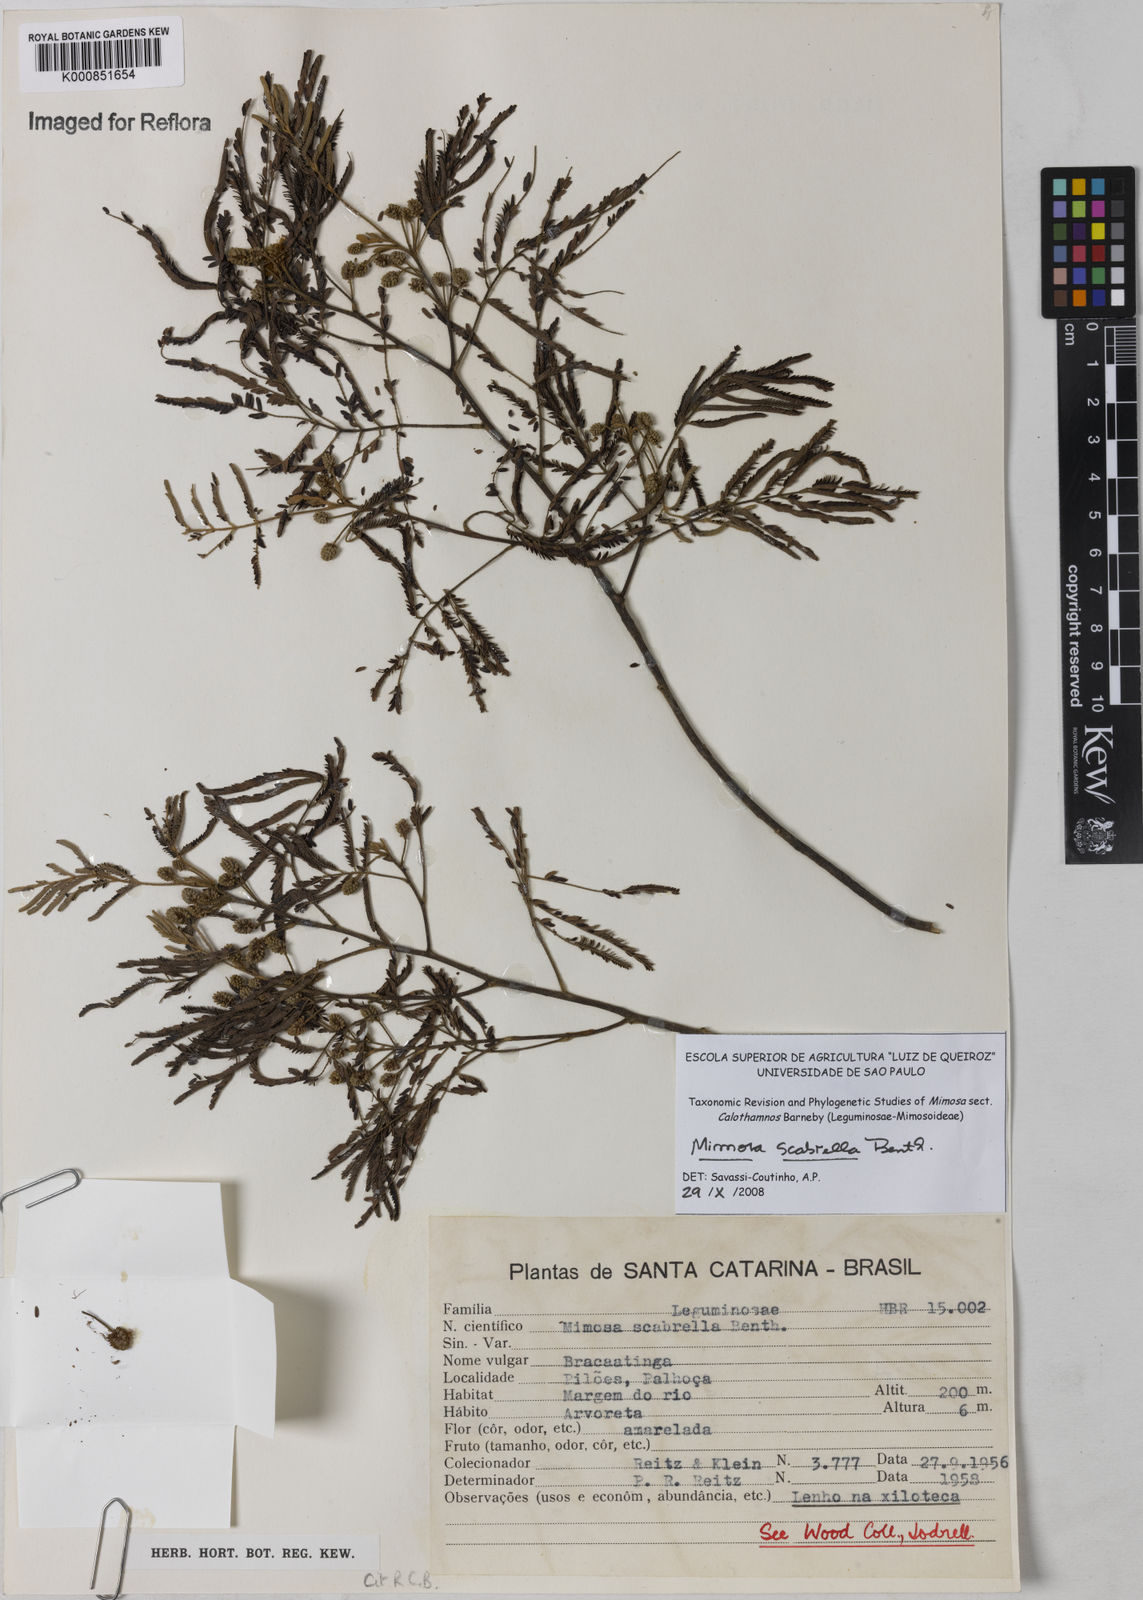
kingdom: Plantae
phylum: Tracheophyta
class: Magnoliopsida
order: Fabales
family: Fabaceae
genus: Mimosa
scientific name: Mimosa scabrella
